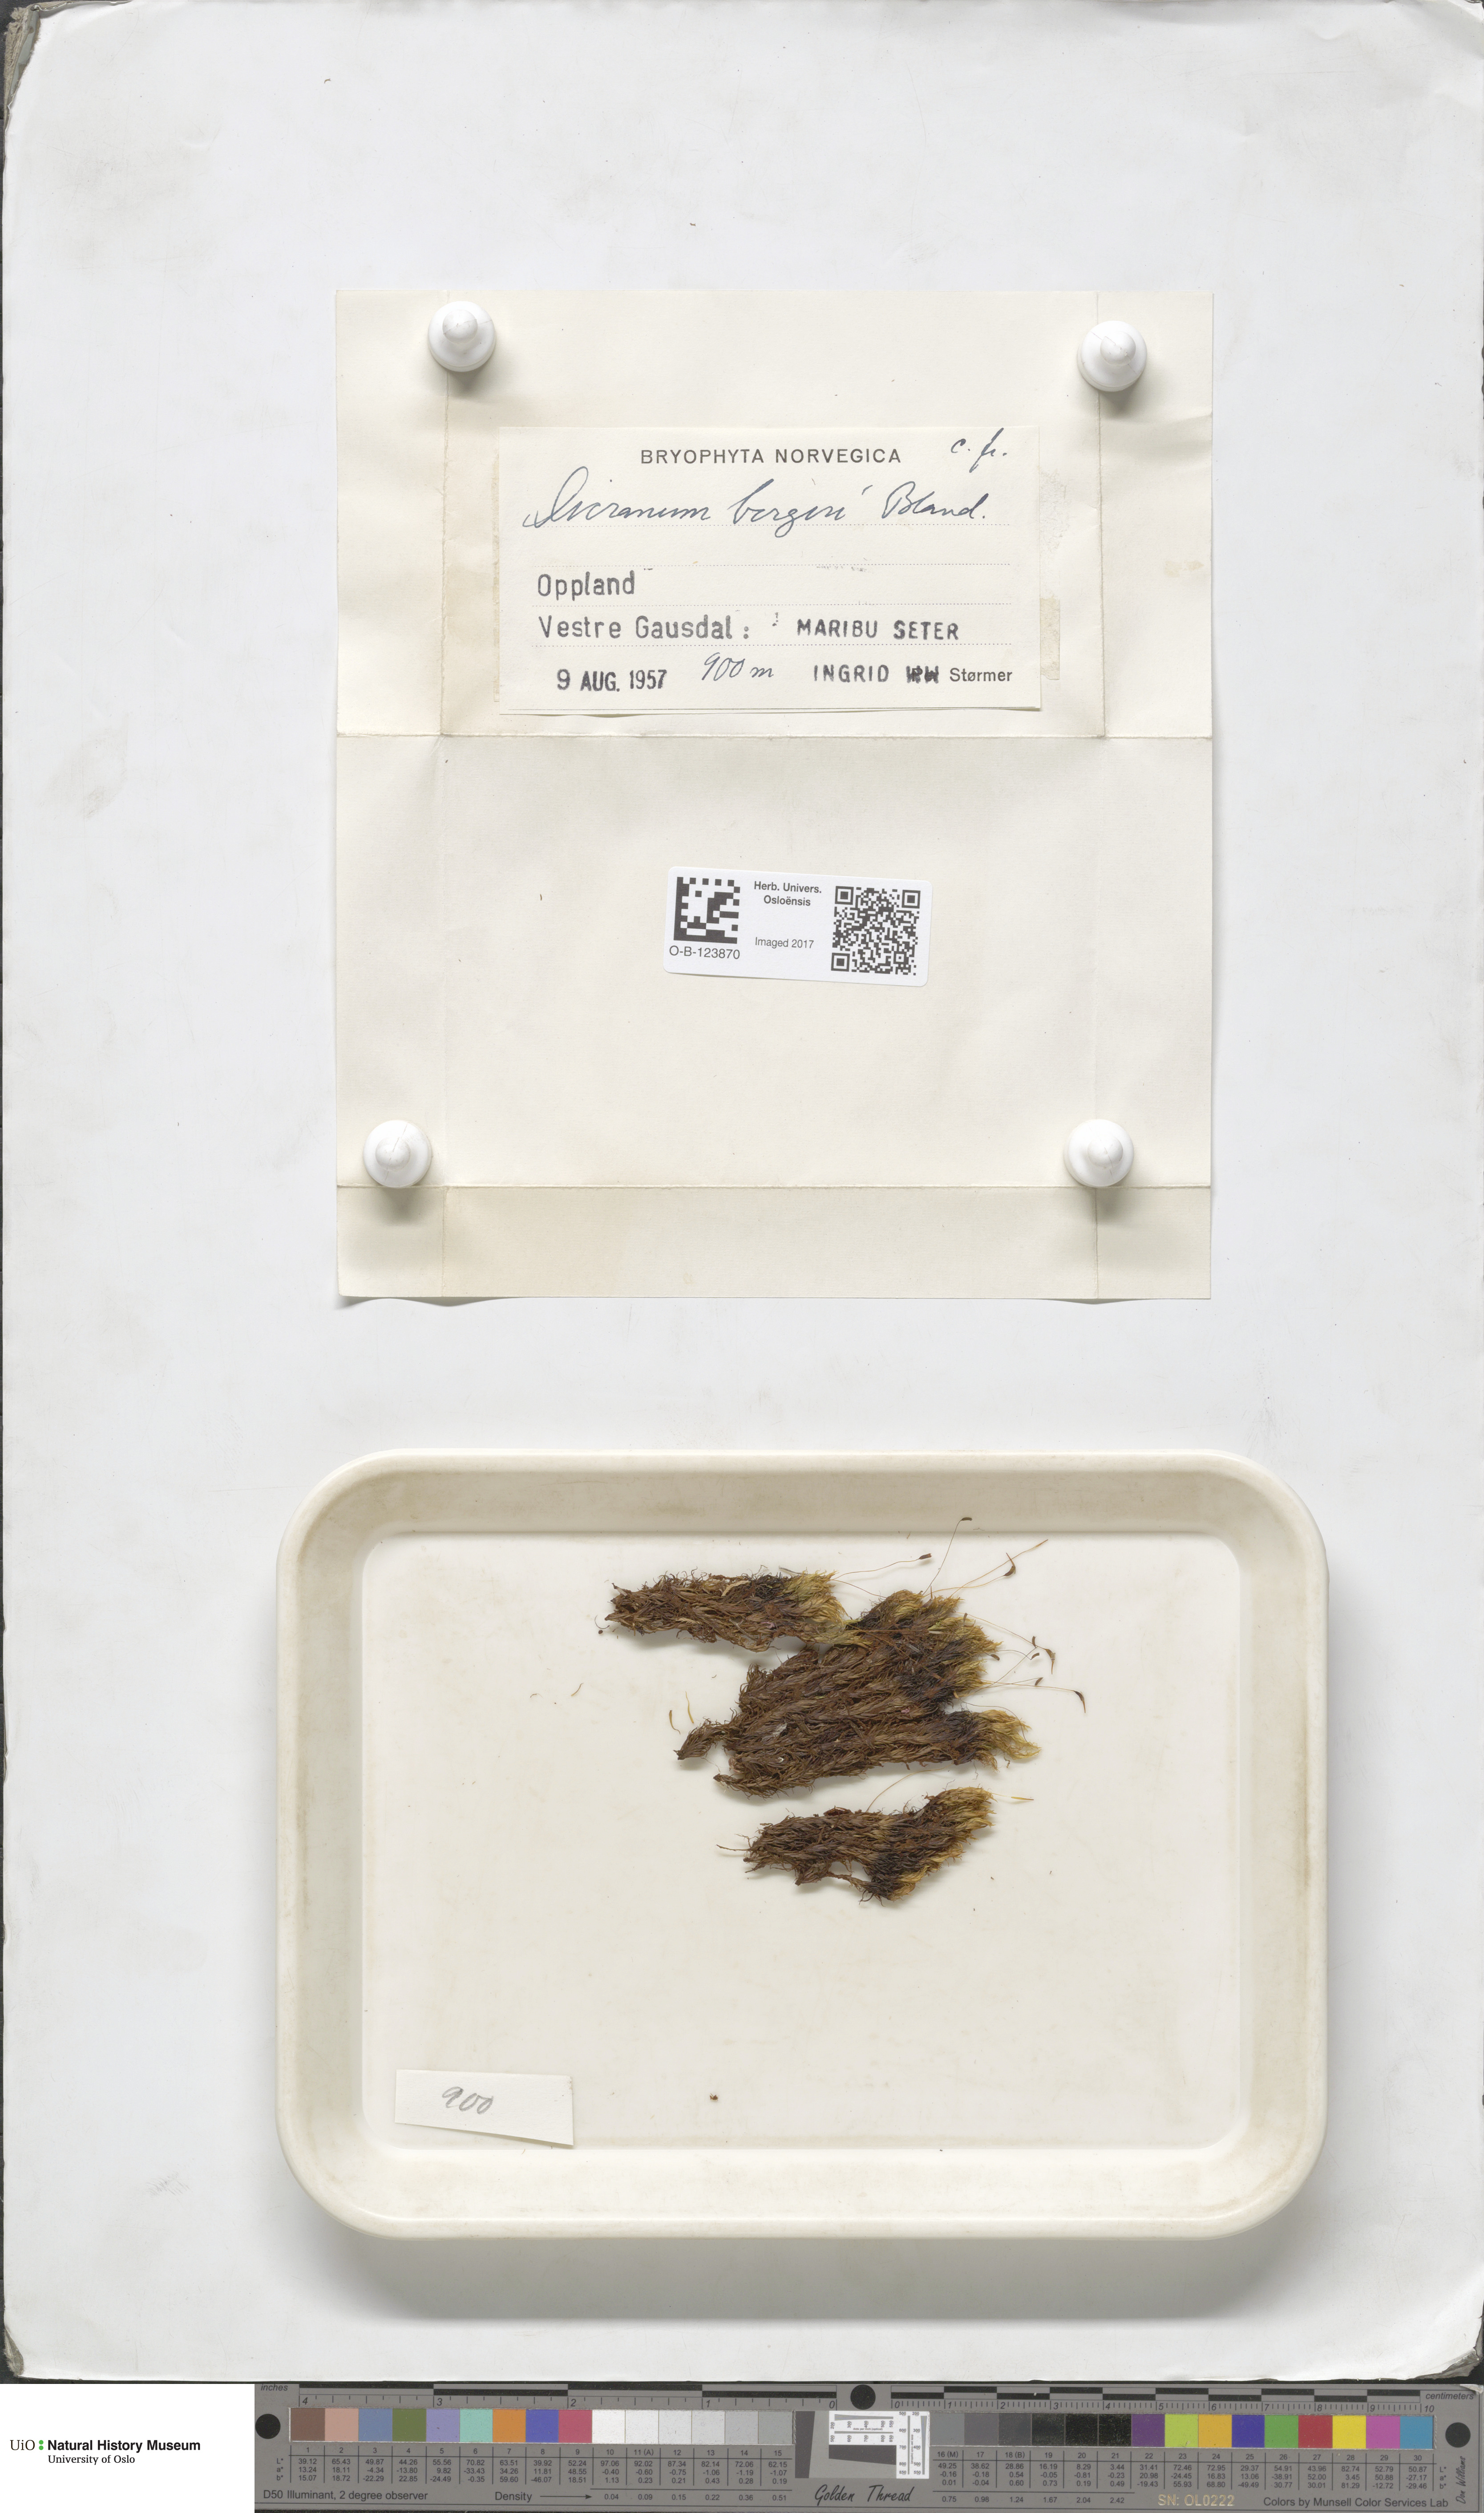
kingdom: Plantae
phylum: Bryophyta
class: Bryopsida
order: Dicranales
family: Dicranaceae
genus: Dicranum
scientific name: Dicranum undulatum
